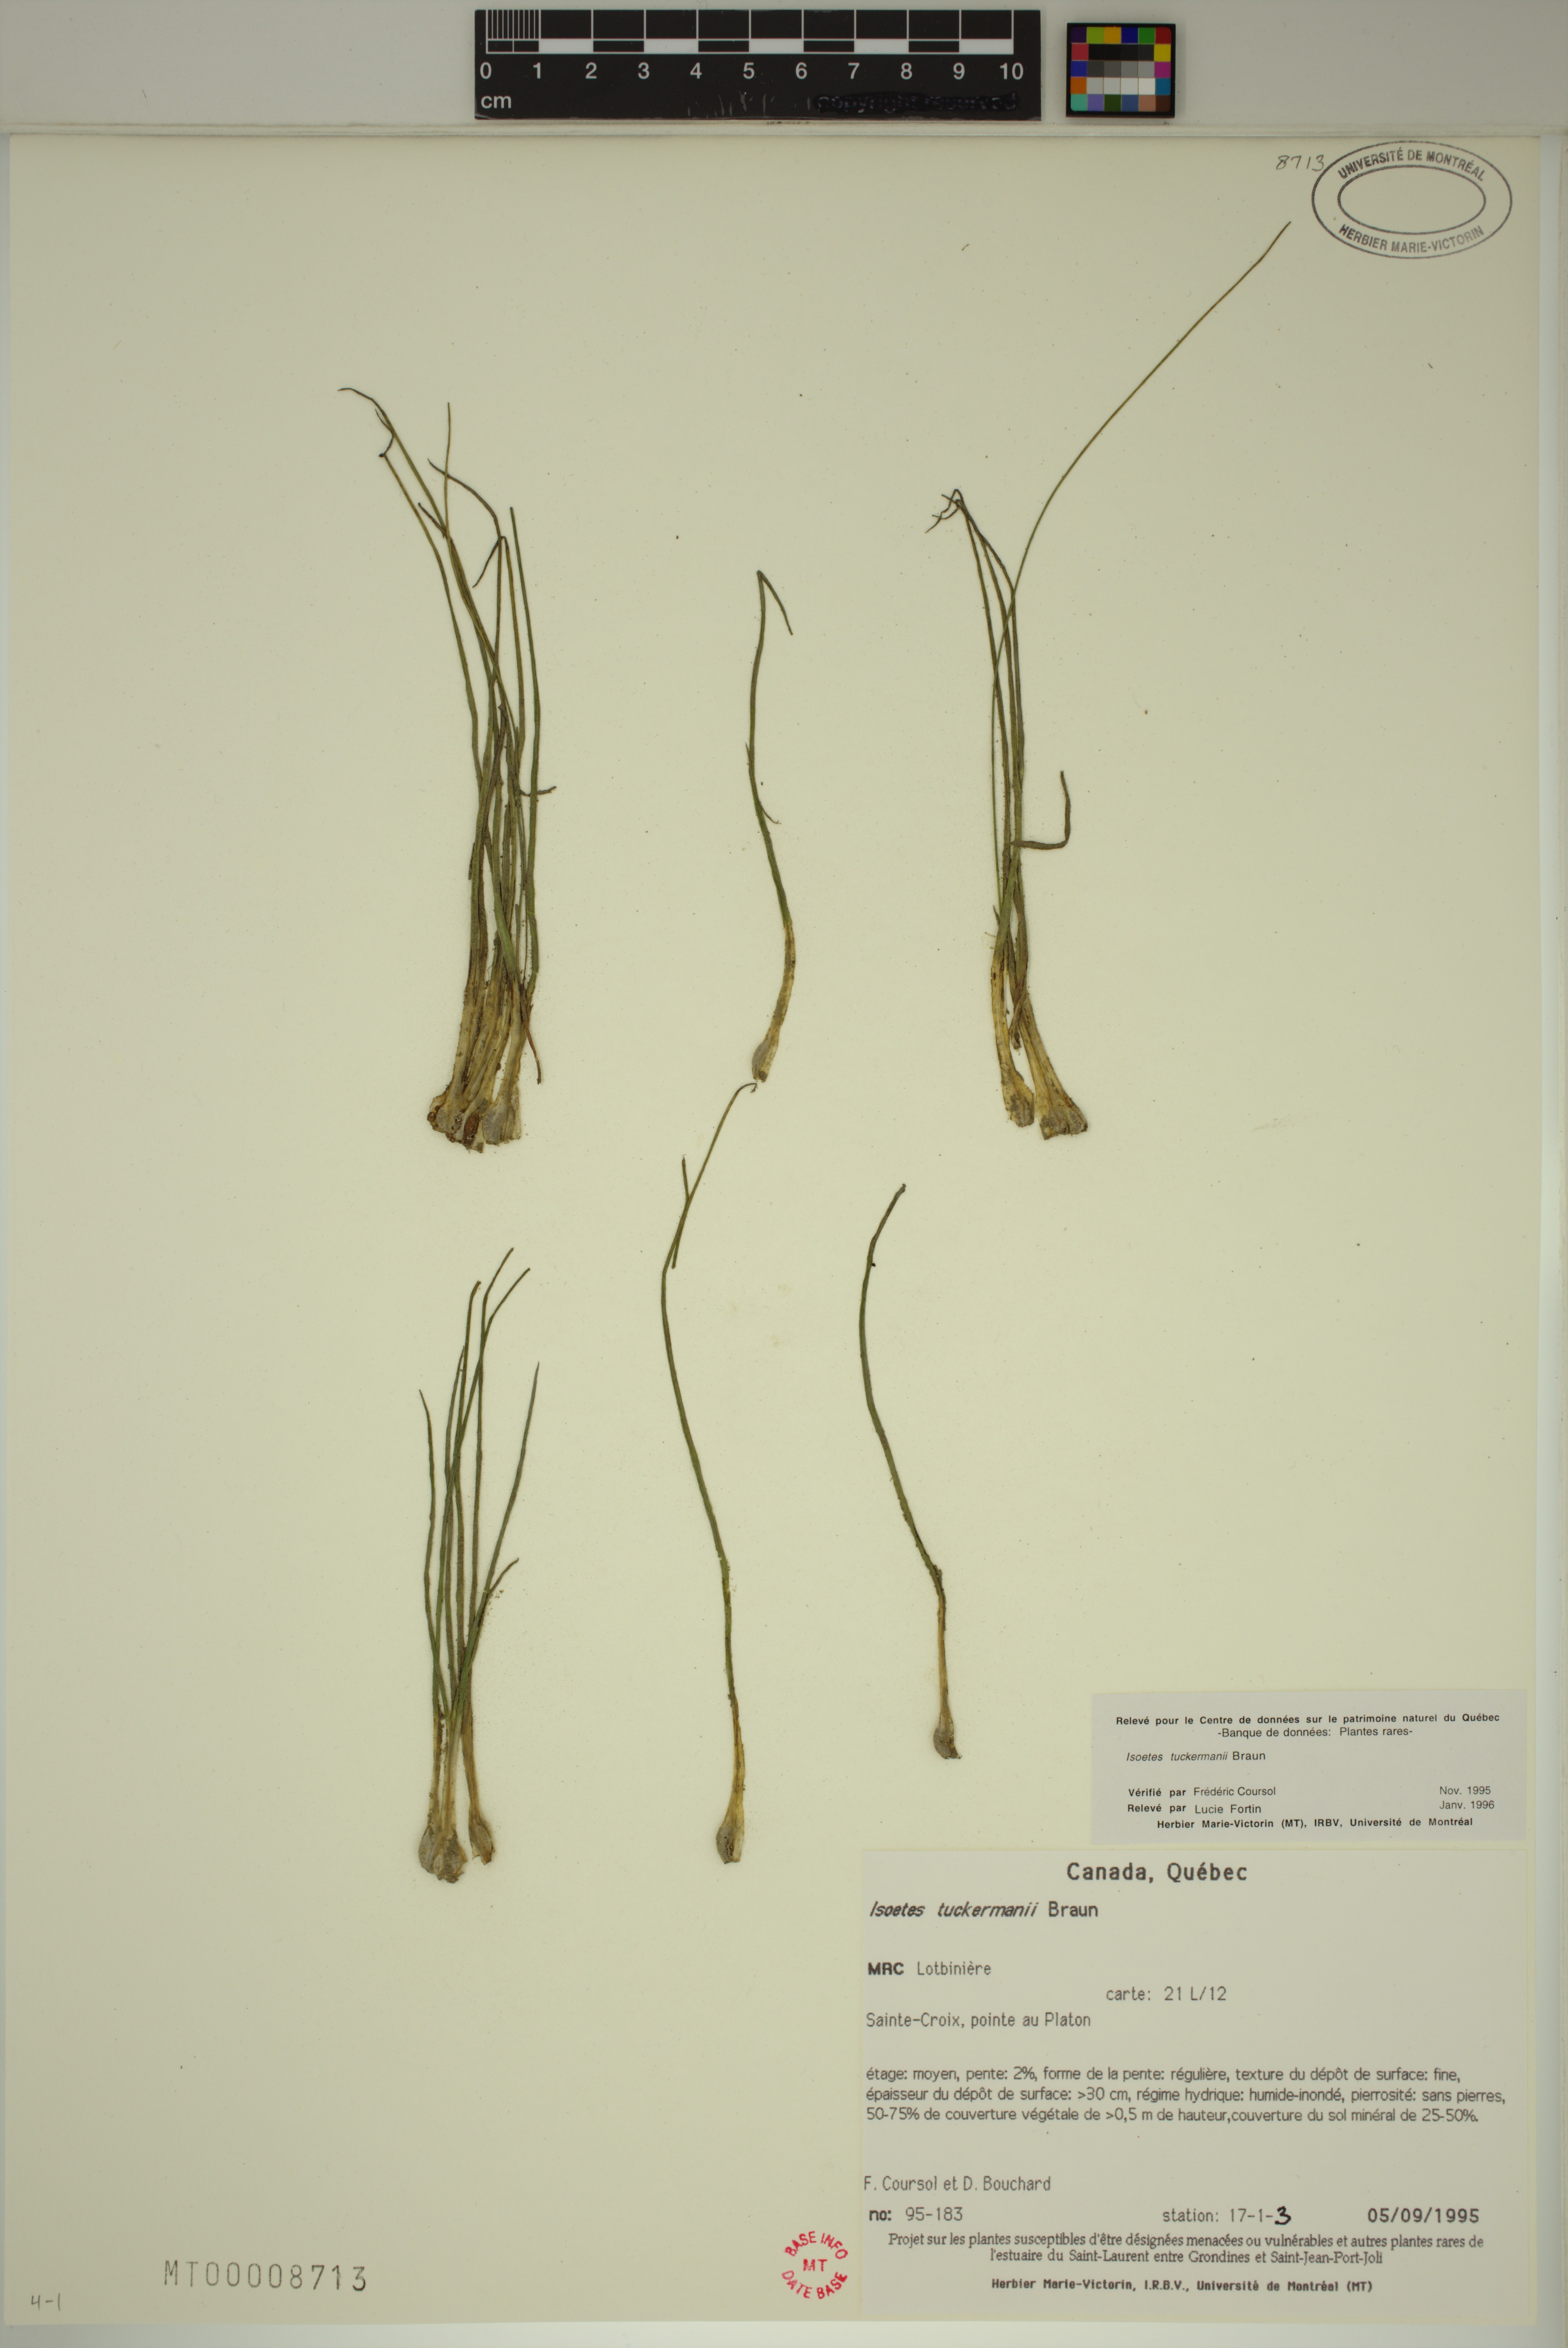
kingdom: Plantae
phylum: Tracheophyta
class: Lycopodiopsida
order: Isoetales
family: Isoetaceae
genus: Isoetes
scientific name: Isoetes laurentiana
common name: St. lawrence quillwort
